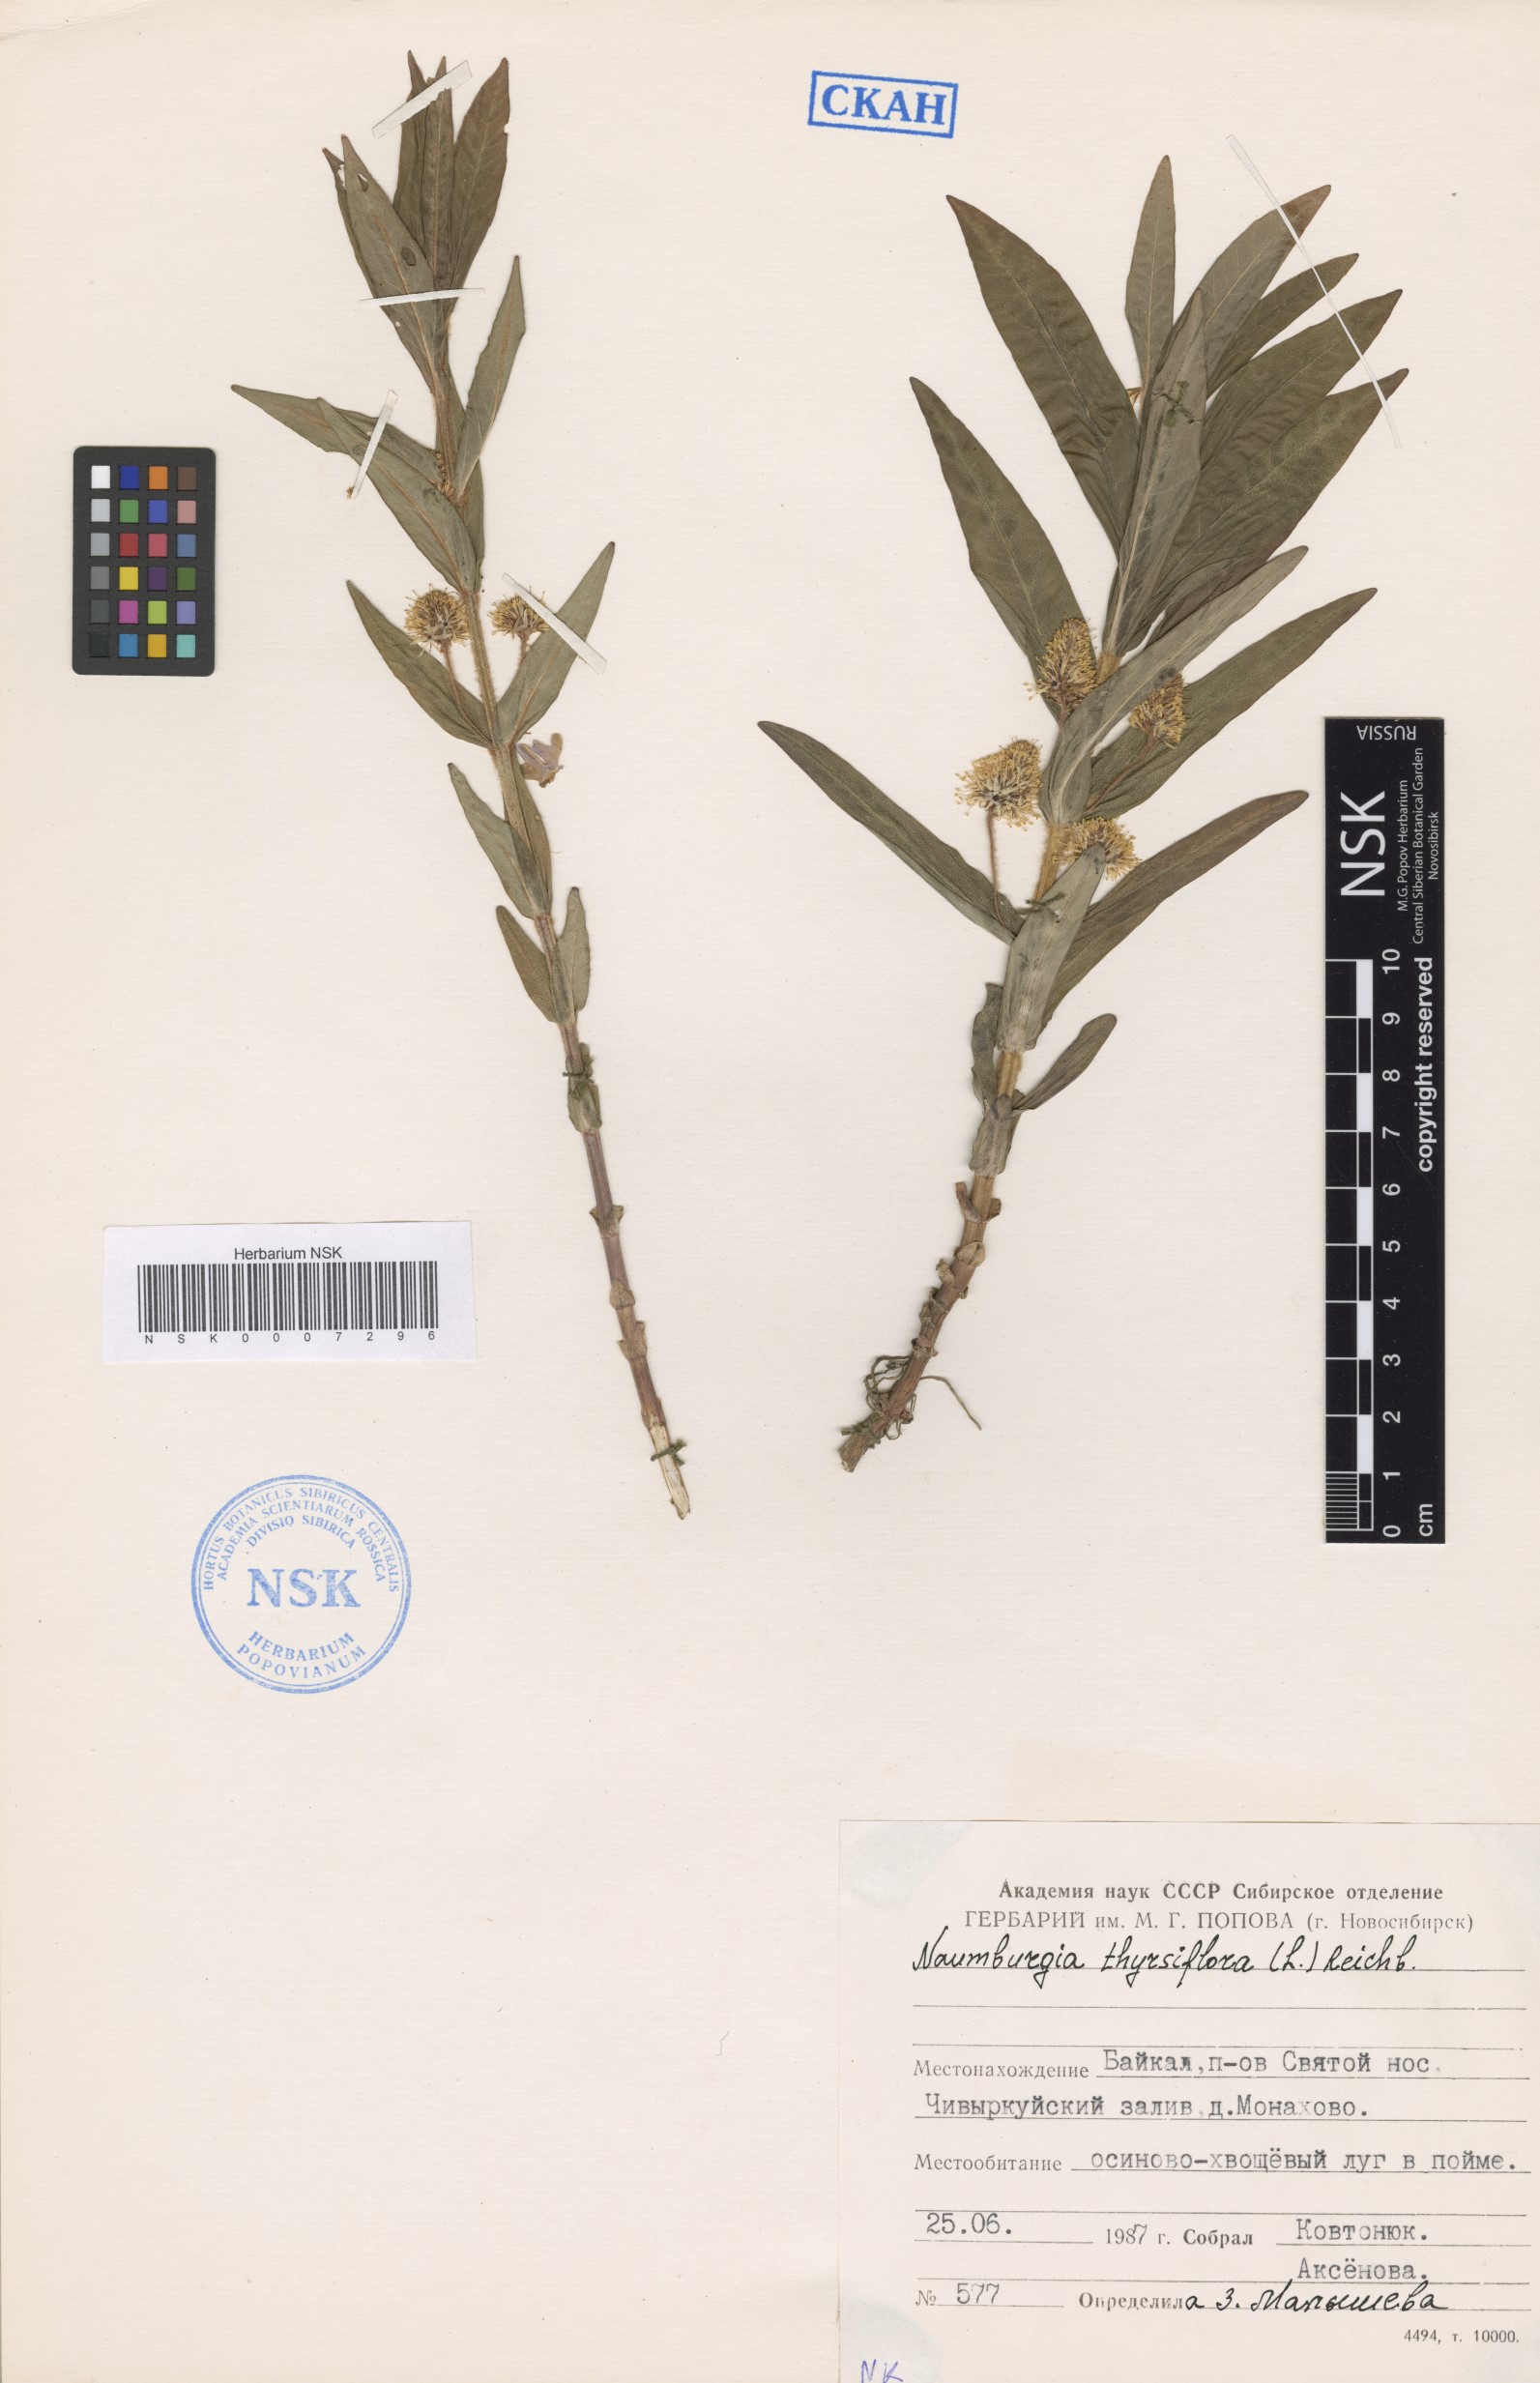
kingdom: Plantae
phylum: Tracheophyta
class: Magnoliopsida
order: Ericales
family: Primulaceae
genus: Lysimachia
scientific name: Lysimachia thyrsiflora
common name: Tufted loosestrife
